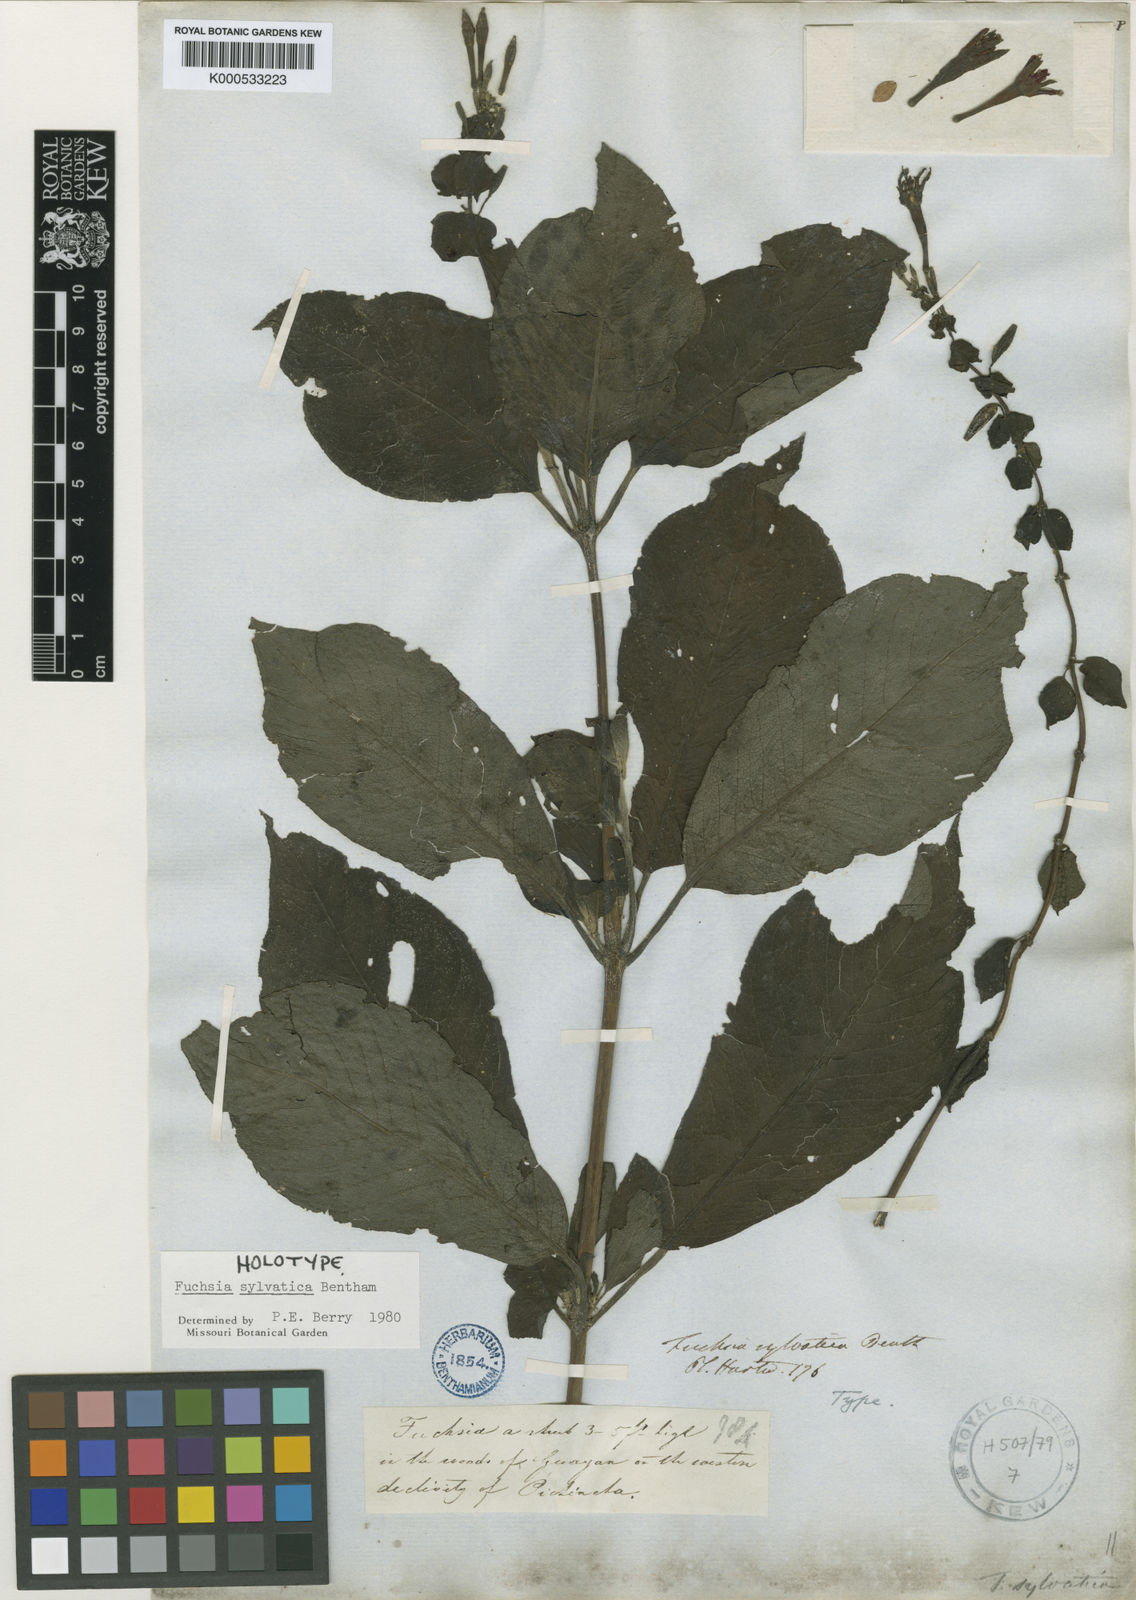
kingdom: Plantae
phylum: Tracheophyta
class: Magnoliopsida
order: Myrtales
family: Onagraceae
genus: Fuchsia
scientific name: Fuchsia sylvatica
